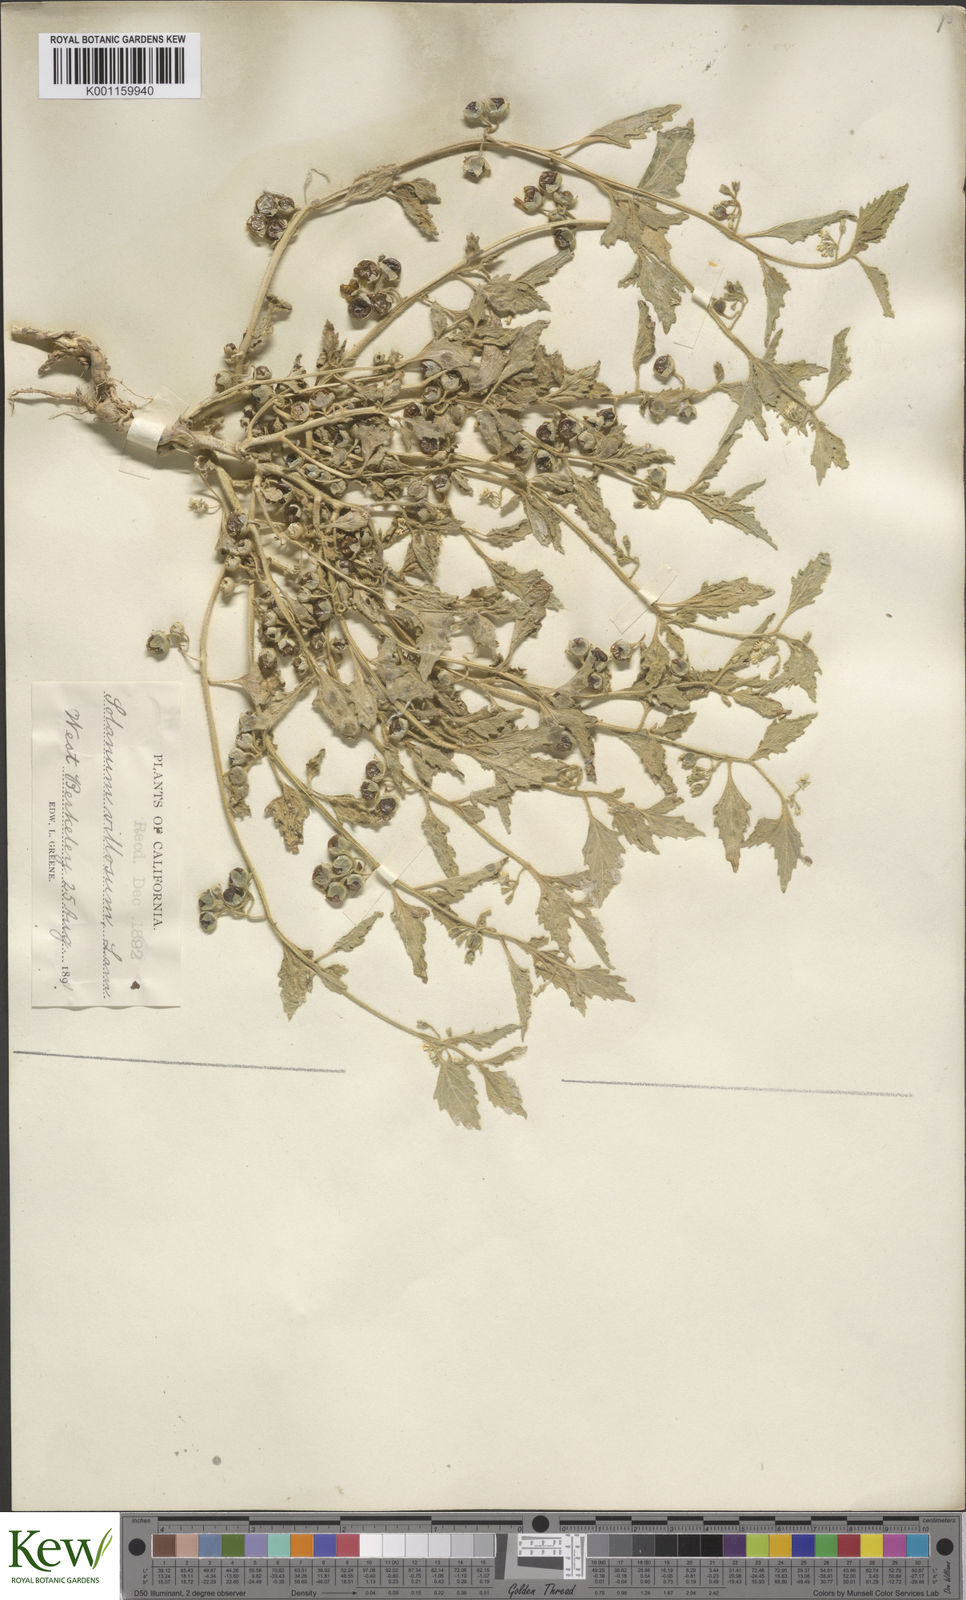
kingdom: Plantae
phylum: Tracheophyta
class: Magnoliopsida
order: Solanales
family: Solanaceae
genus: Solanum
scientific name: Solanum nitidibaccatum
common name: Hairy nightshade
